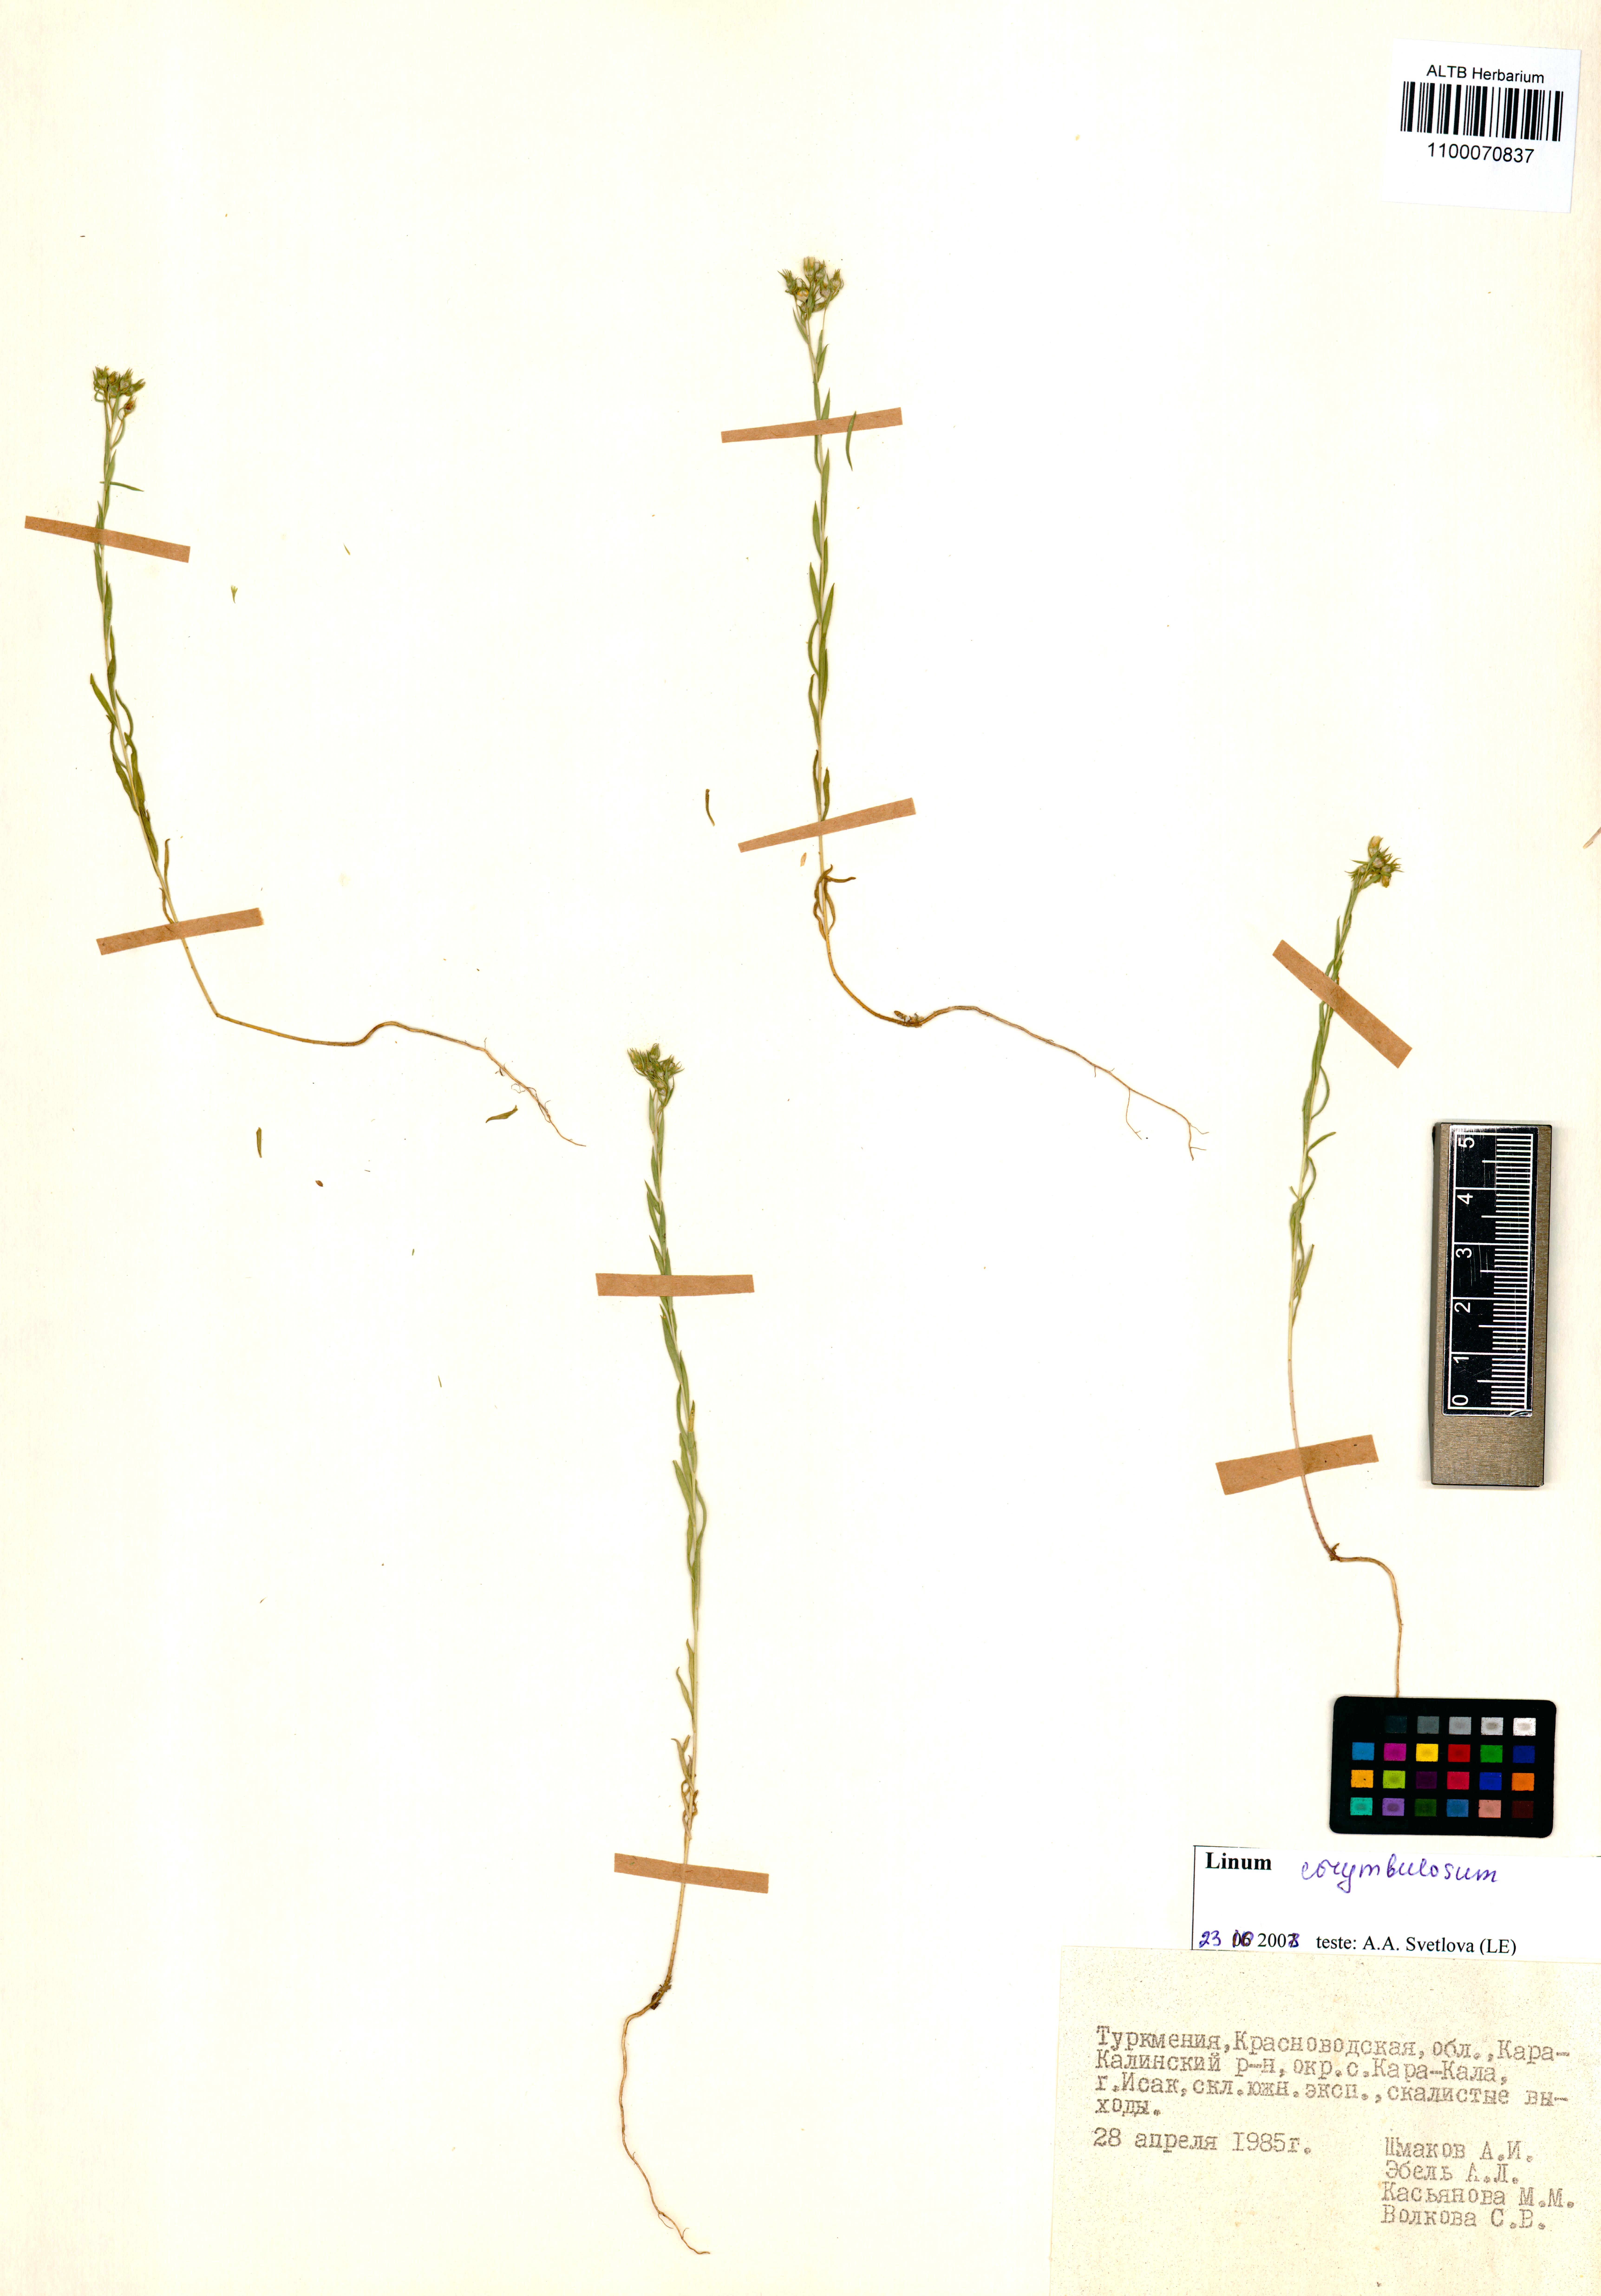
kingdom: Plantae
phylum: Tracheophyta
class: Magnoliopsida
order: Malpighiales
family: Linaceae
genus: Linum
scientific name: Linum corymbulosum
